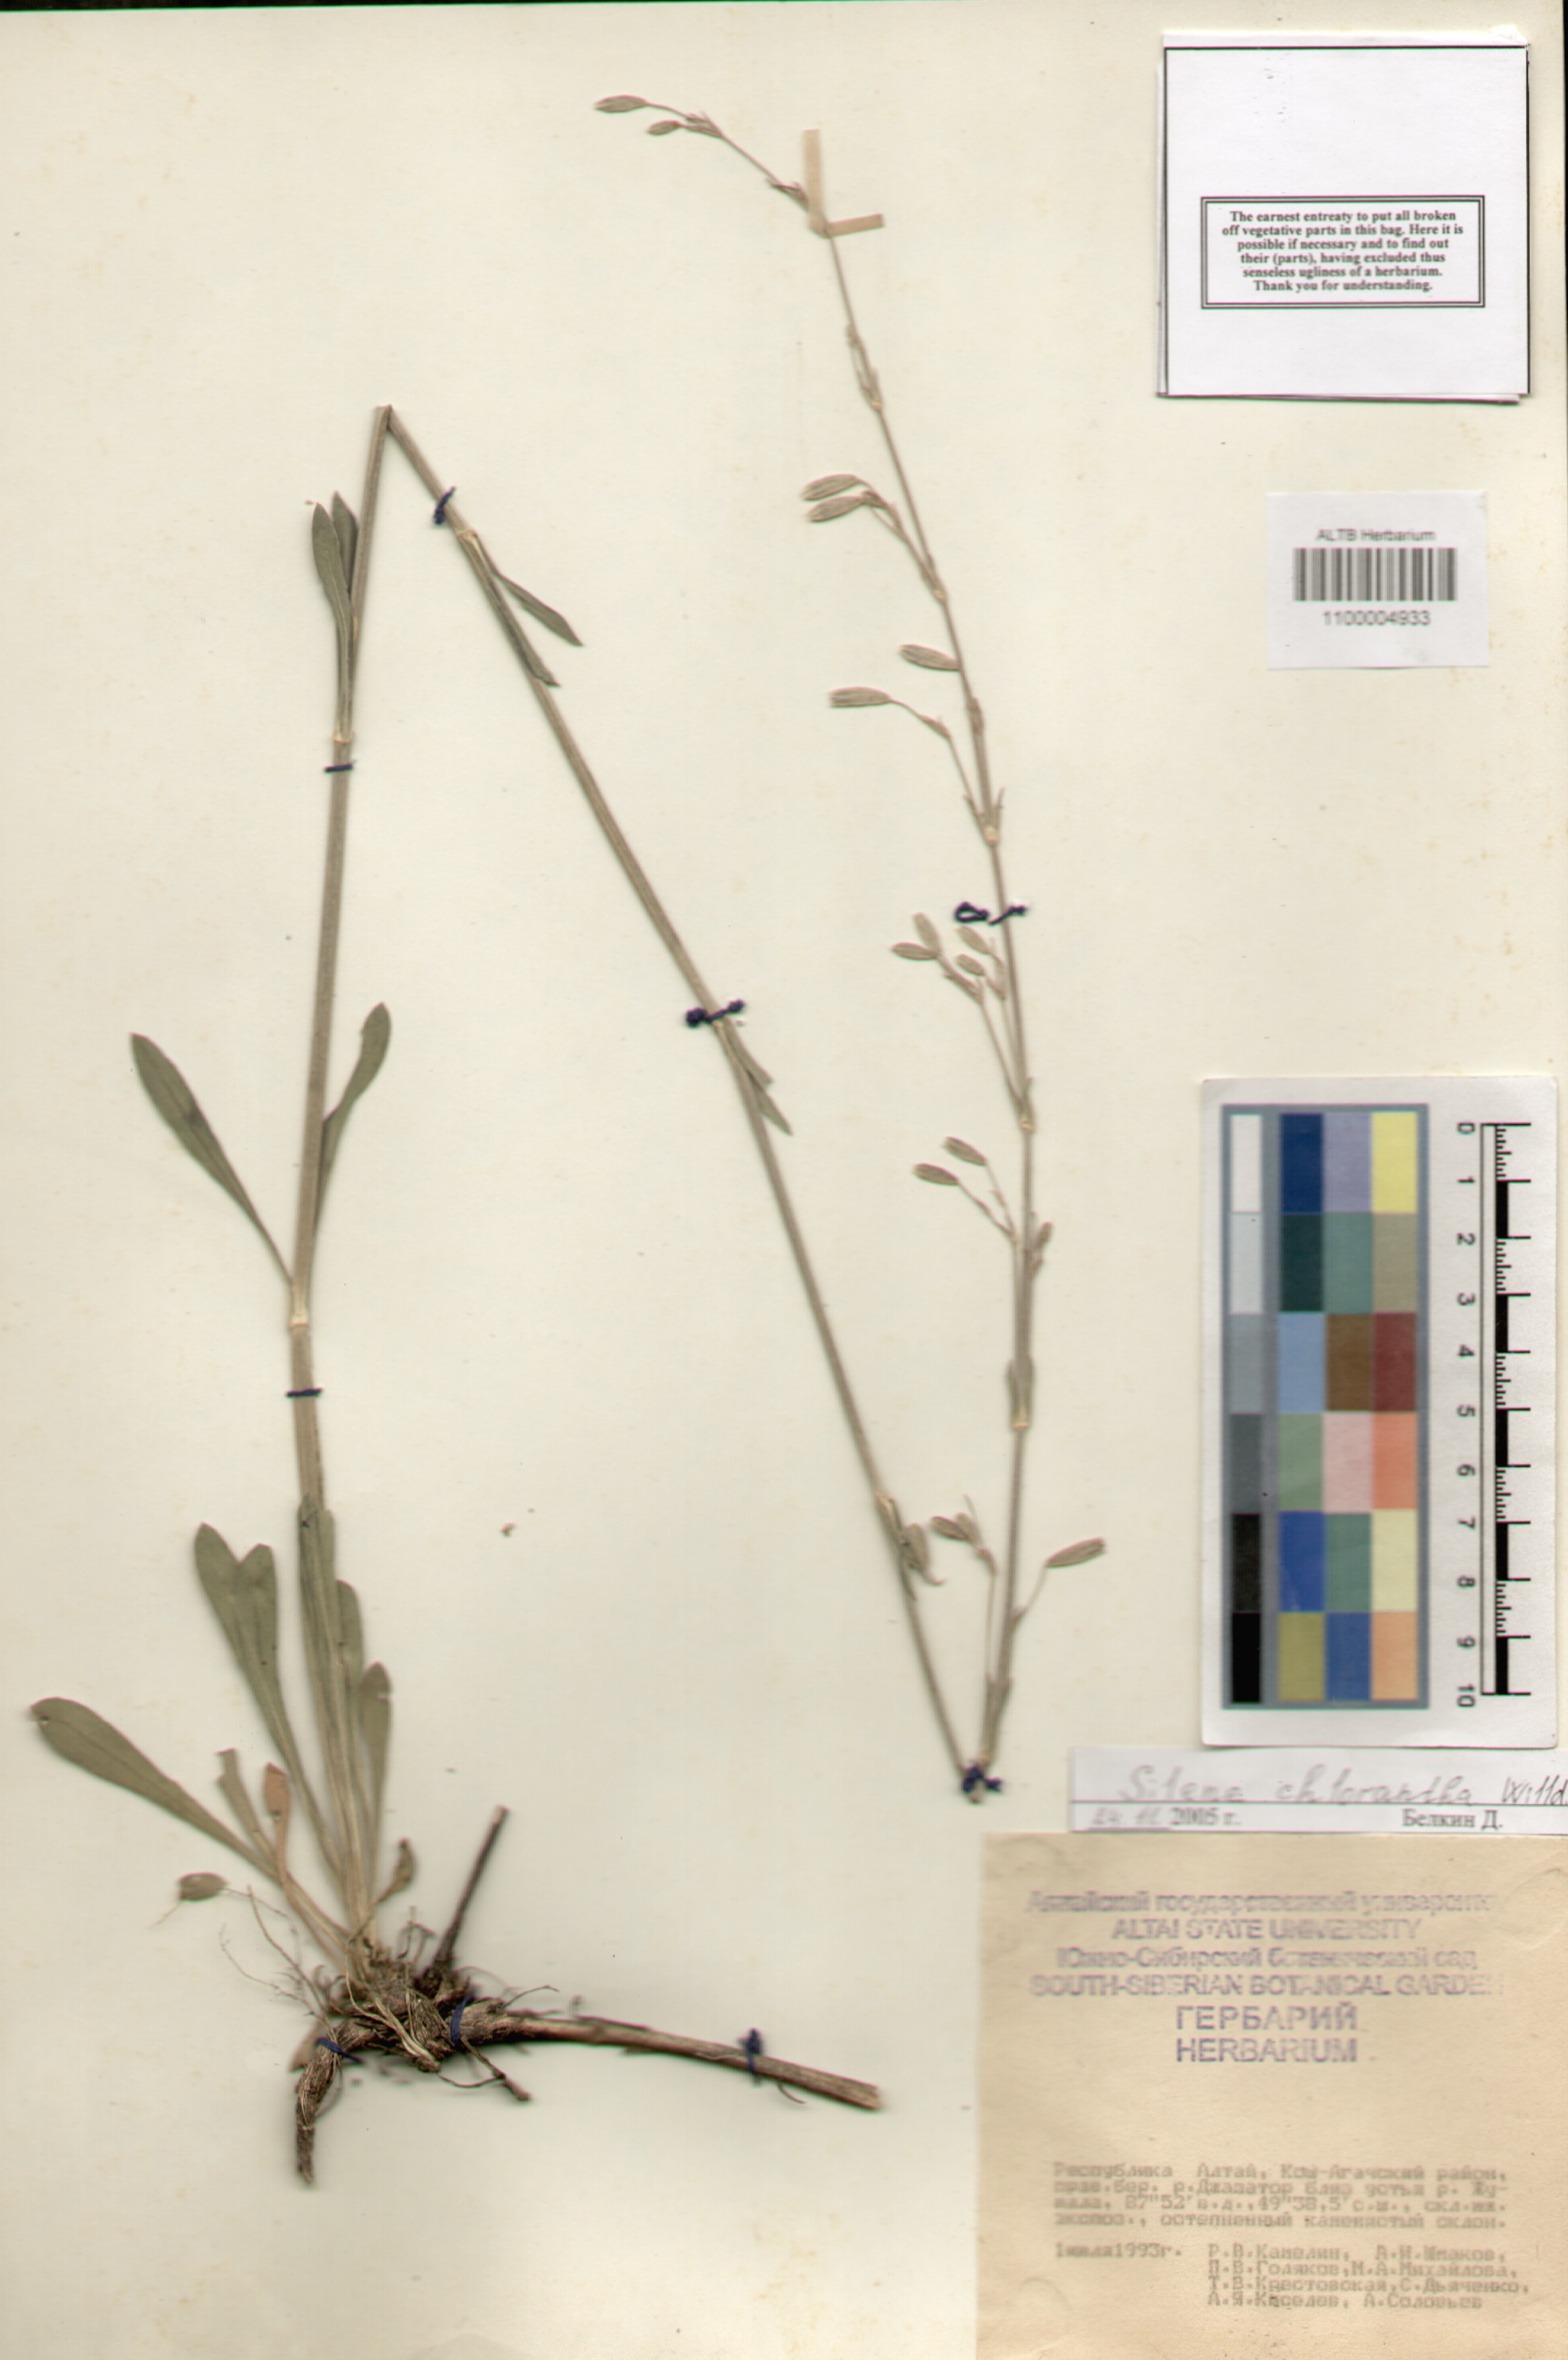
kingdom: Plantae
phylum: Tracheophyta
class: Magnoliopsida
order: Caryophyllales
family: Caryophyllaceae
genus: Silene
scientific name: Silene chlorantha
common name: Yellowgreen catchfly
